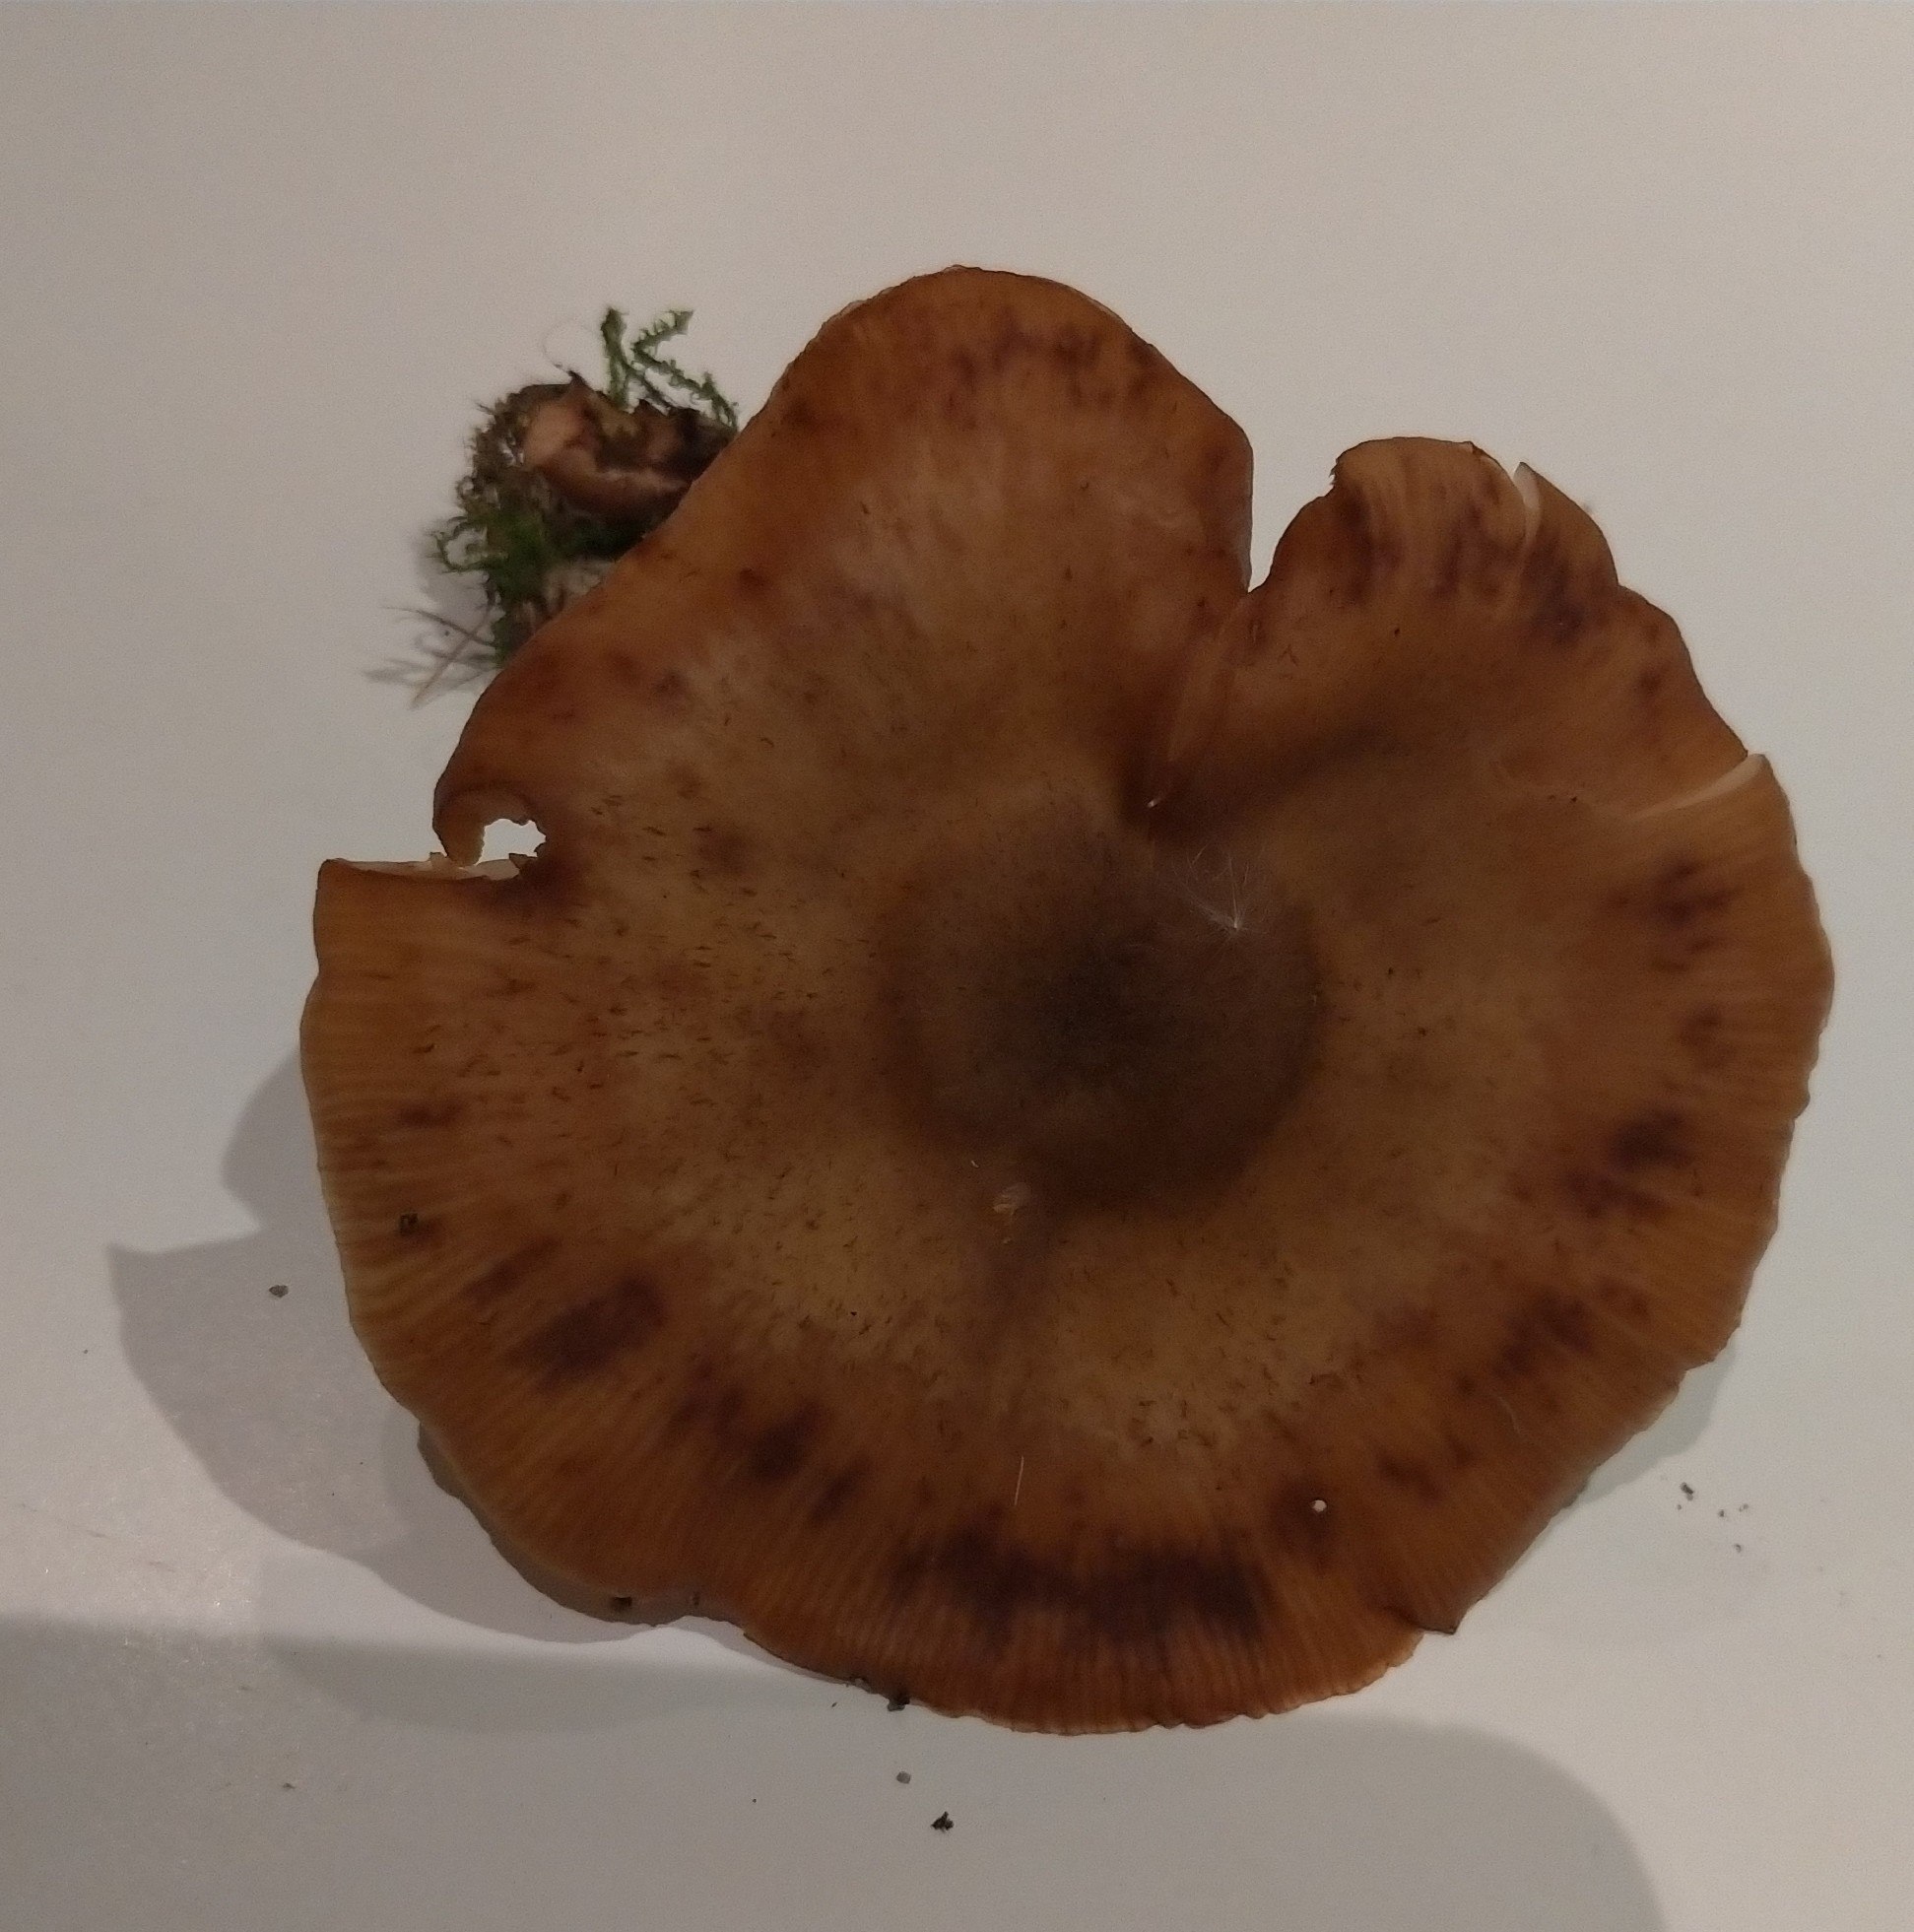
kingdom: Fungi
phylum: Basidiomycota
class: Agaricomycetes
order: Agaricales
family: Physalacriaceae
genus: Armillaria
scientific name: Armillaria
